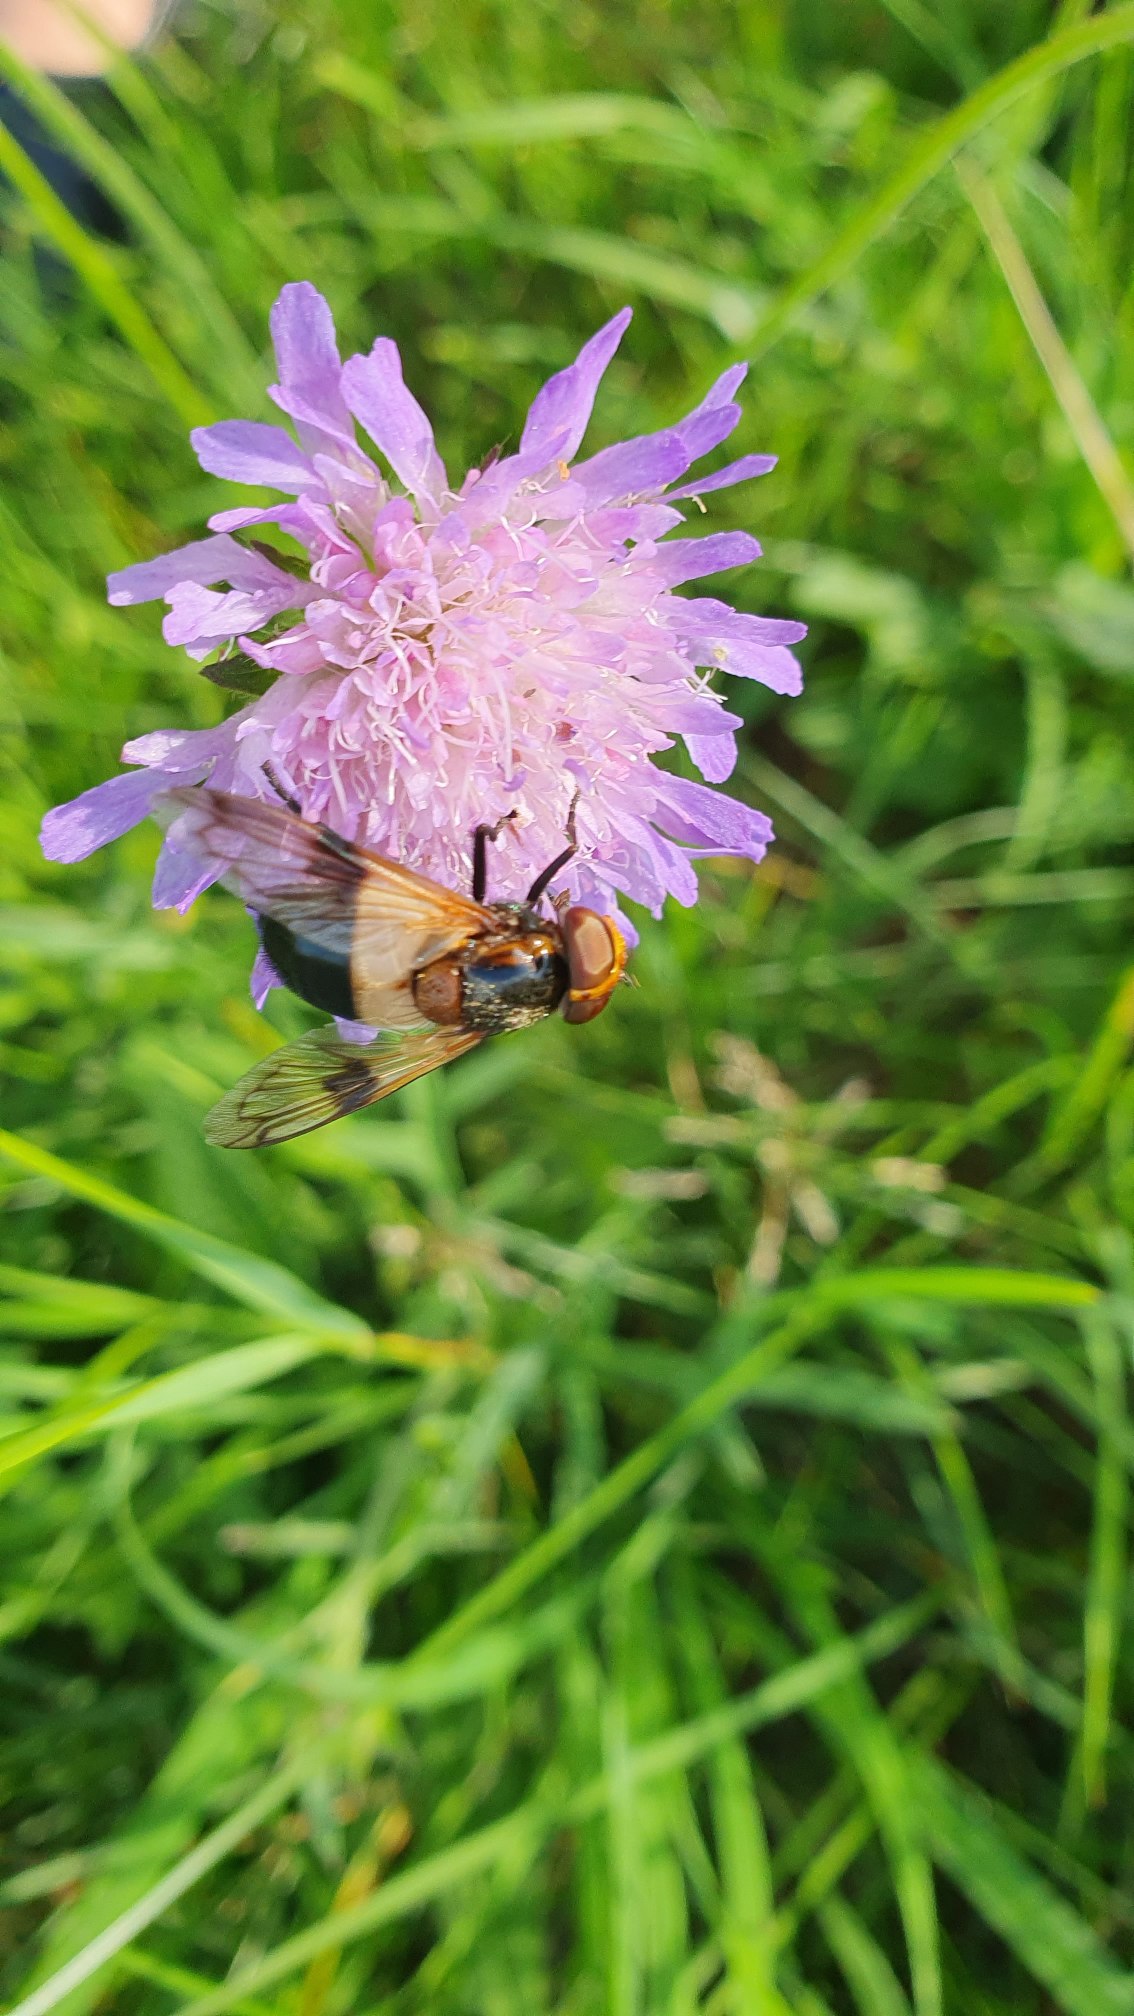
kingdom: Animalia
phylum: Arthropoda
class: Insecta
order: Diptera
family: Syrphidae
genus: Volucella
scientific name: Volucella pellucens
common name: Hvidbåndet humlesvirreflue
